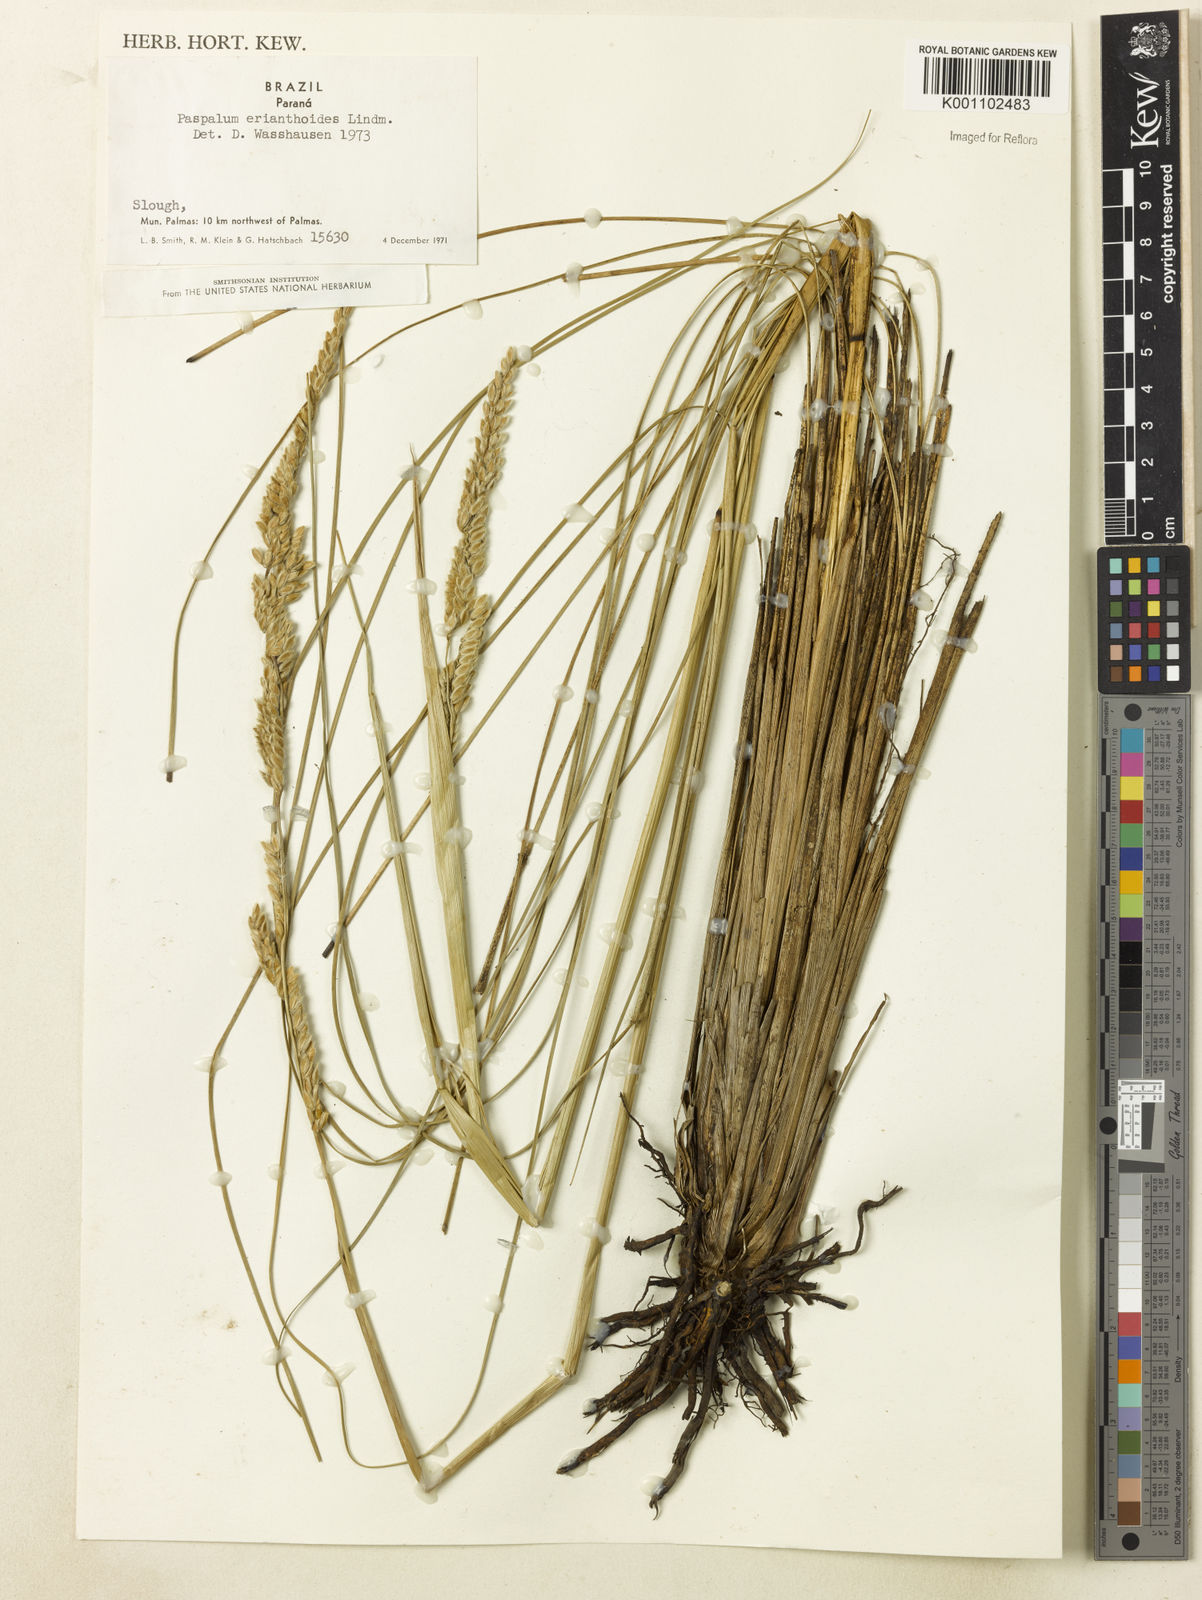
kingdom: Plantae
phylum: Tracheophyta
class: Liliopsida
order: Poales
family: Poaceae
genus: Paspalum
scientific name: Paspalum erianthoides
